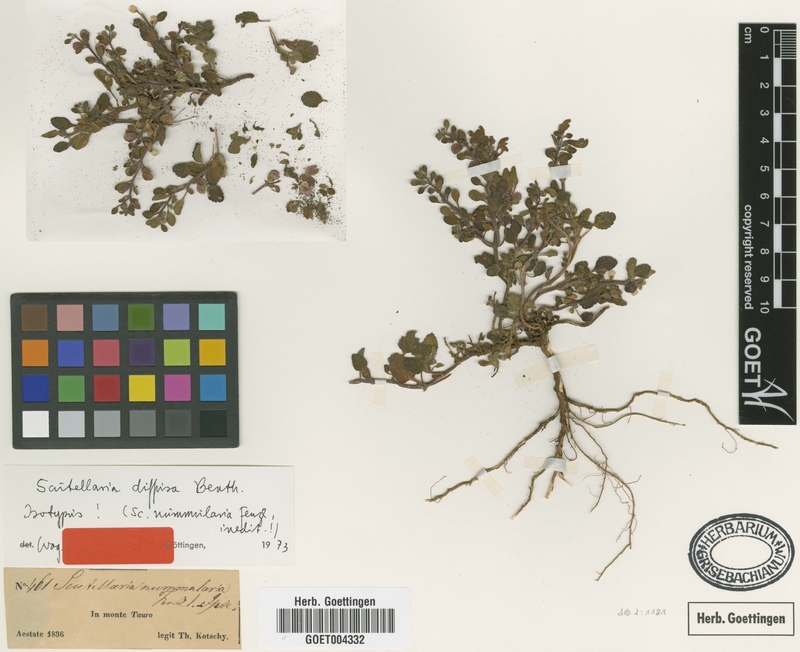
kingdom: Plantae
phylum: Tracheophyta
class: Magnoliopsida
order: Lamiales
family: Lamiaceae
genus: Scutellaria
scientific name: Scutellaria diffusa
